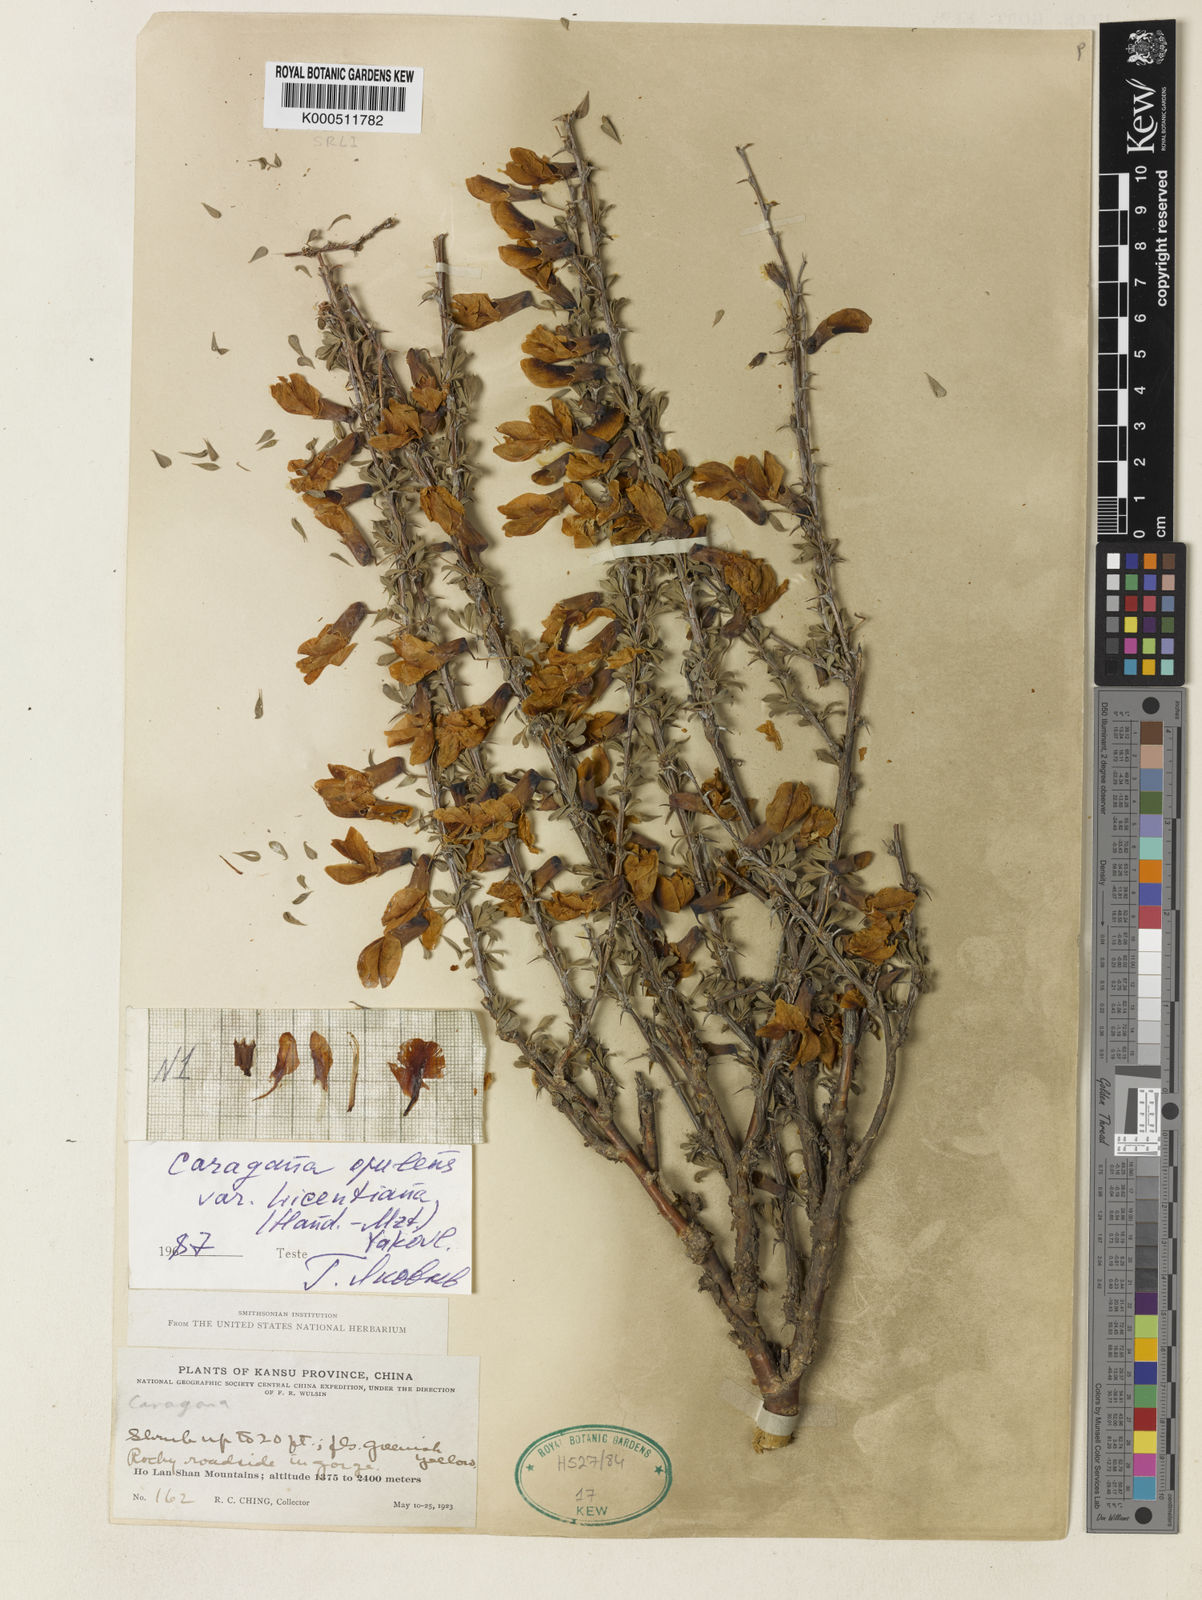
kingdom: Plantae
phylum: Tracheophyta
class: Magnoliopsida
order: Fabales
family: Fabaceae
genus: Caragana
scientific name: Caragana opulens
